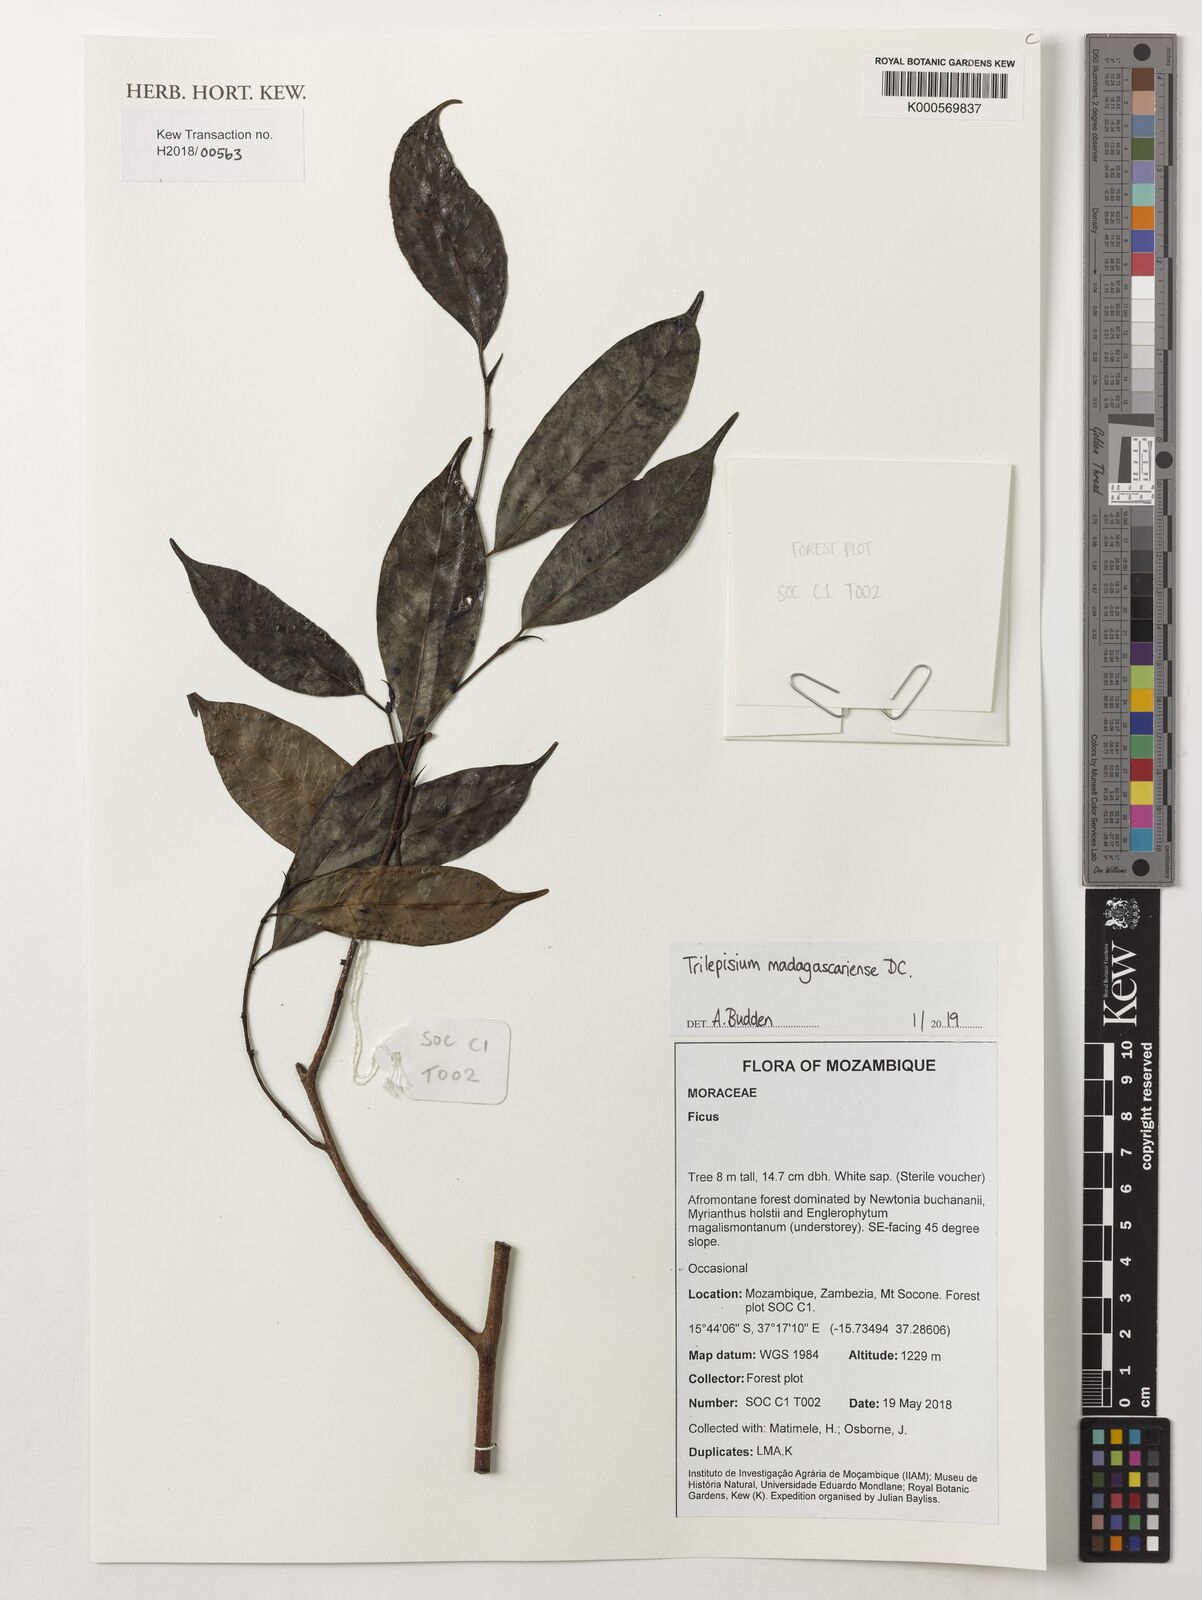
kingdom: Plantae
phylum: Tracheophyta
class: Magnoliopsida
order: Rosales
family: Moraceae
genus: Trilepisium
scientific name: Trilepisium madagascariense
